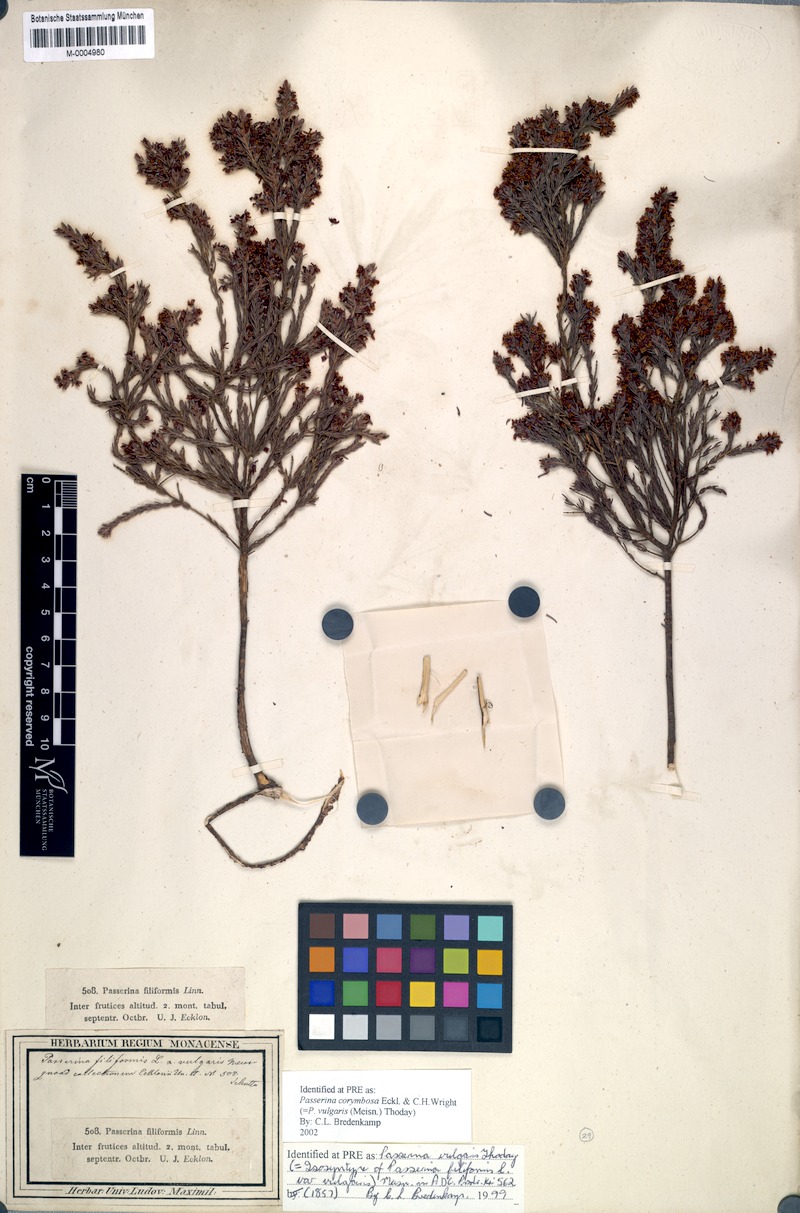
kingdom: Plantae
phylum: Tracheophyta
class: Magnoliopsida
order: Malvales
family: Thymelaeaceae
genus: Passerina
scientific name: Passerina corymbosa
